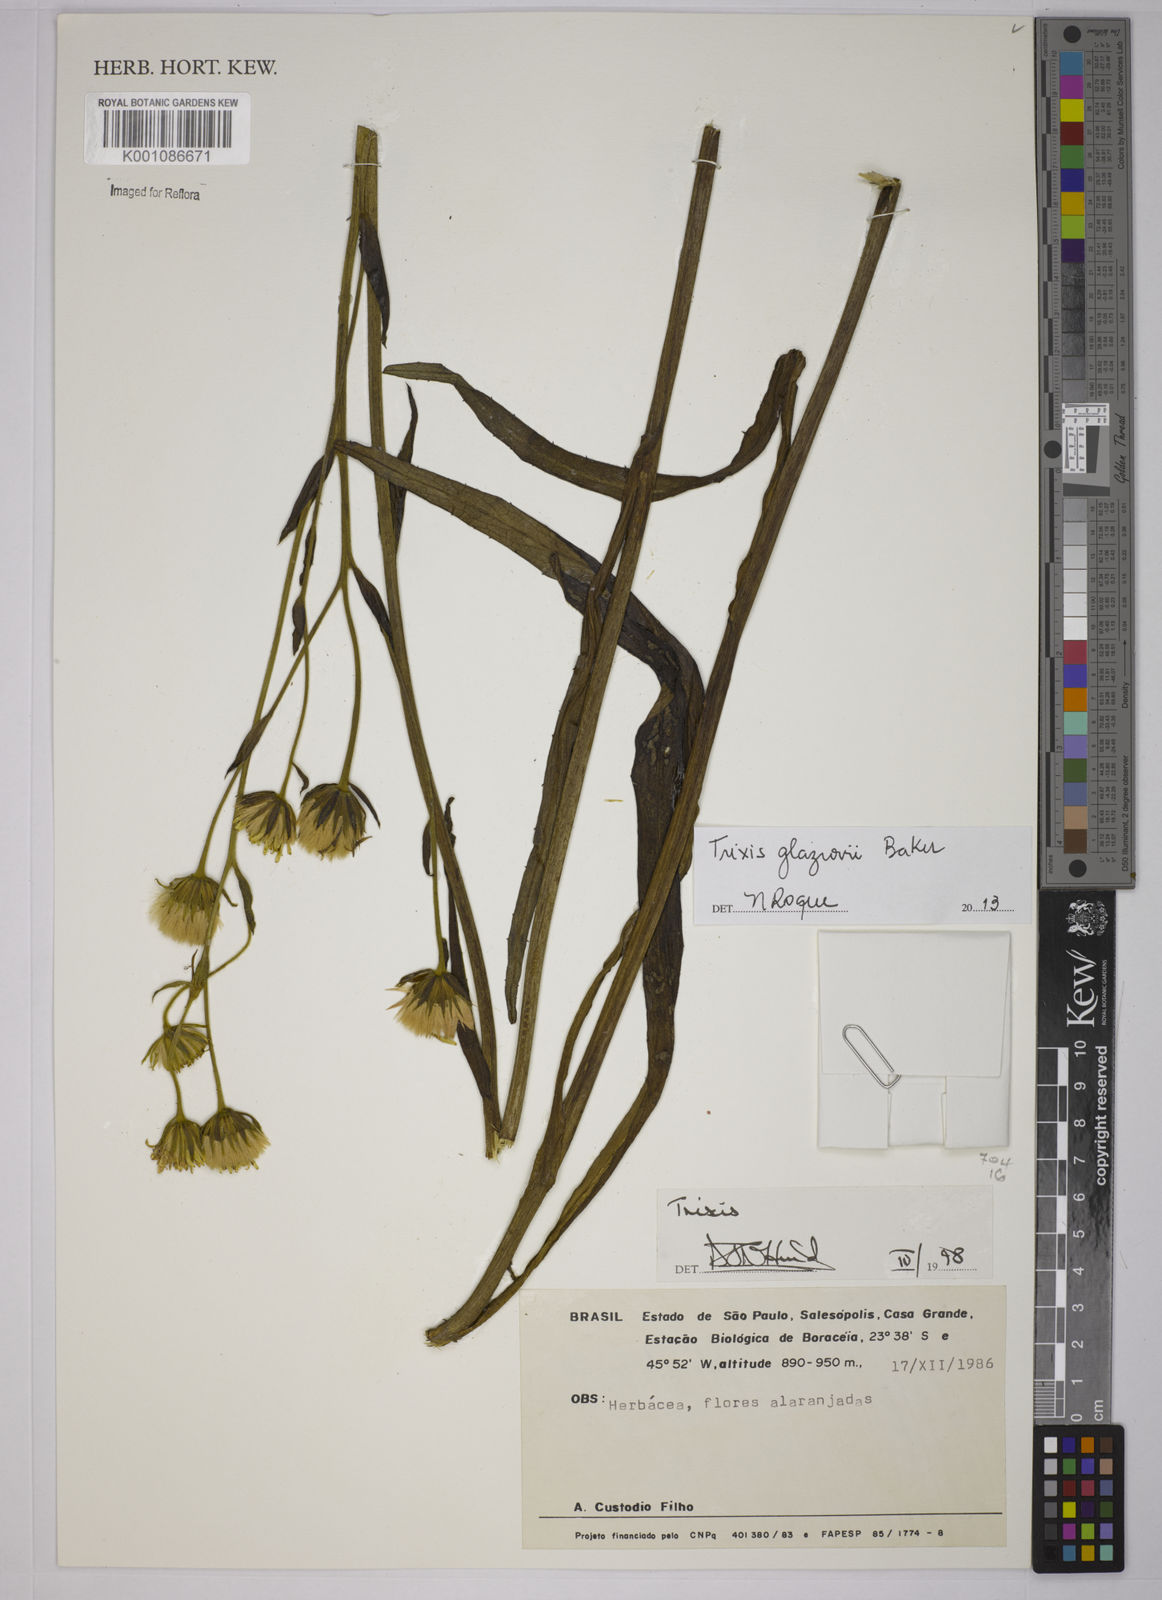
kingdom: Plantae
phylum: Tracheophyta
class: Magnoliopsida
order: Asterales
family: Asteraceae
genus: Trixis
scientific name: Trixis glaziovii
